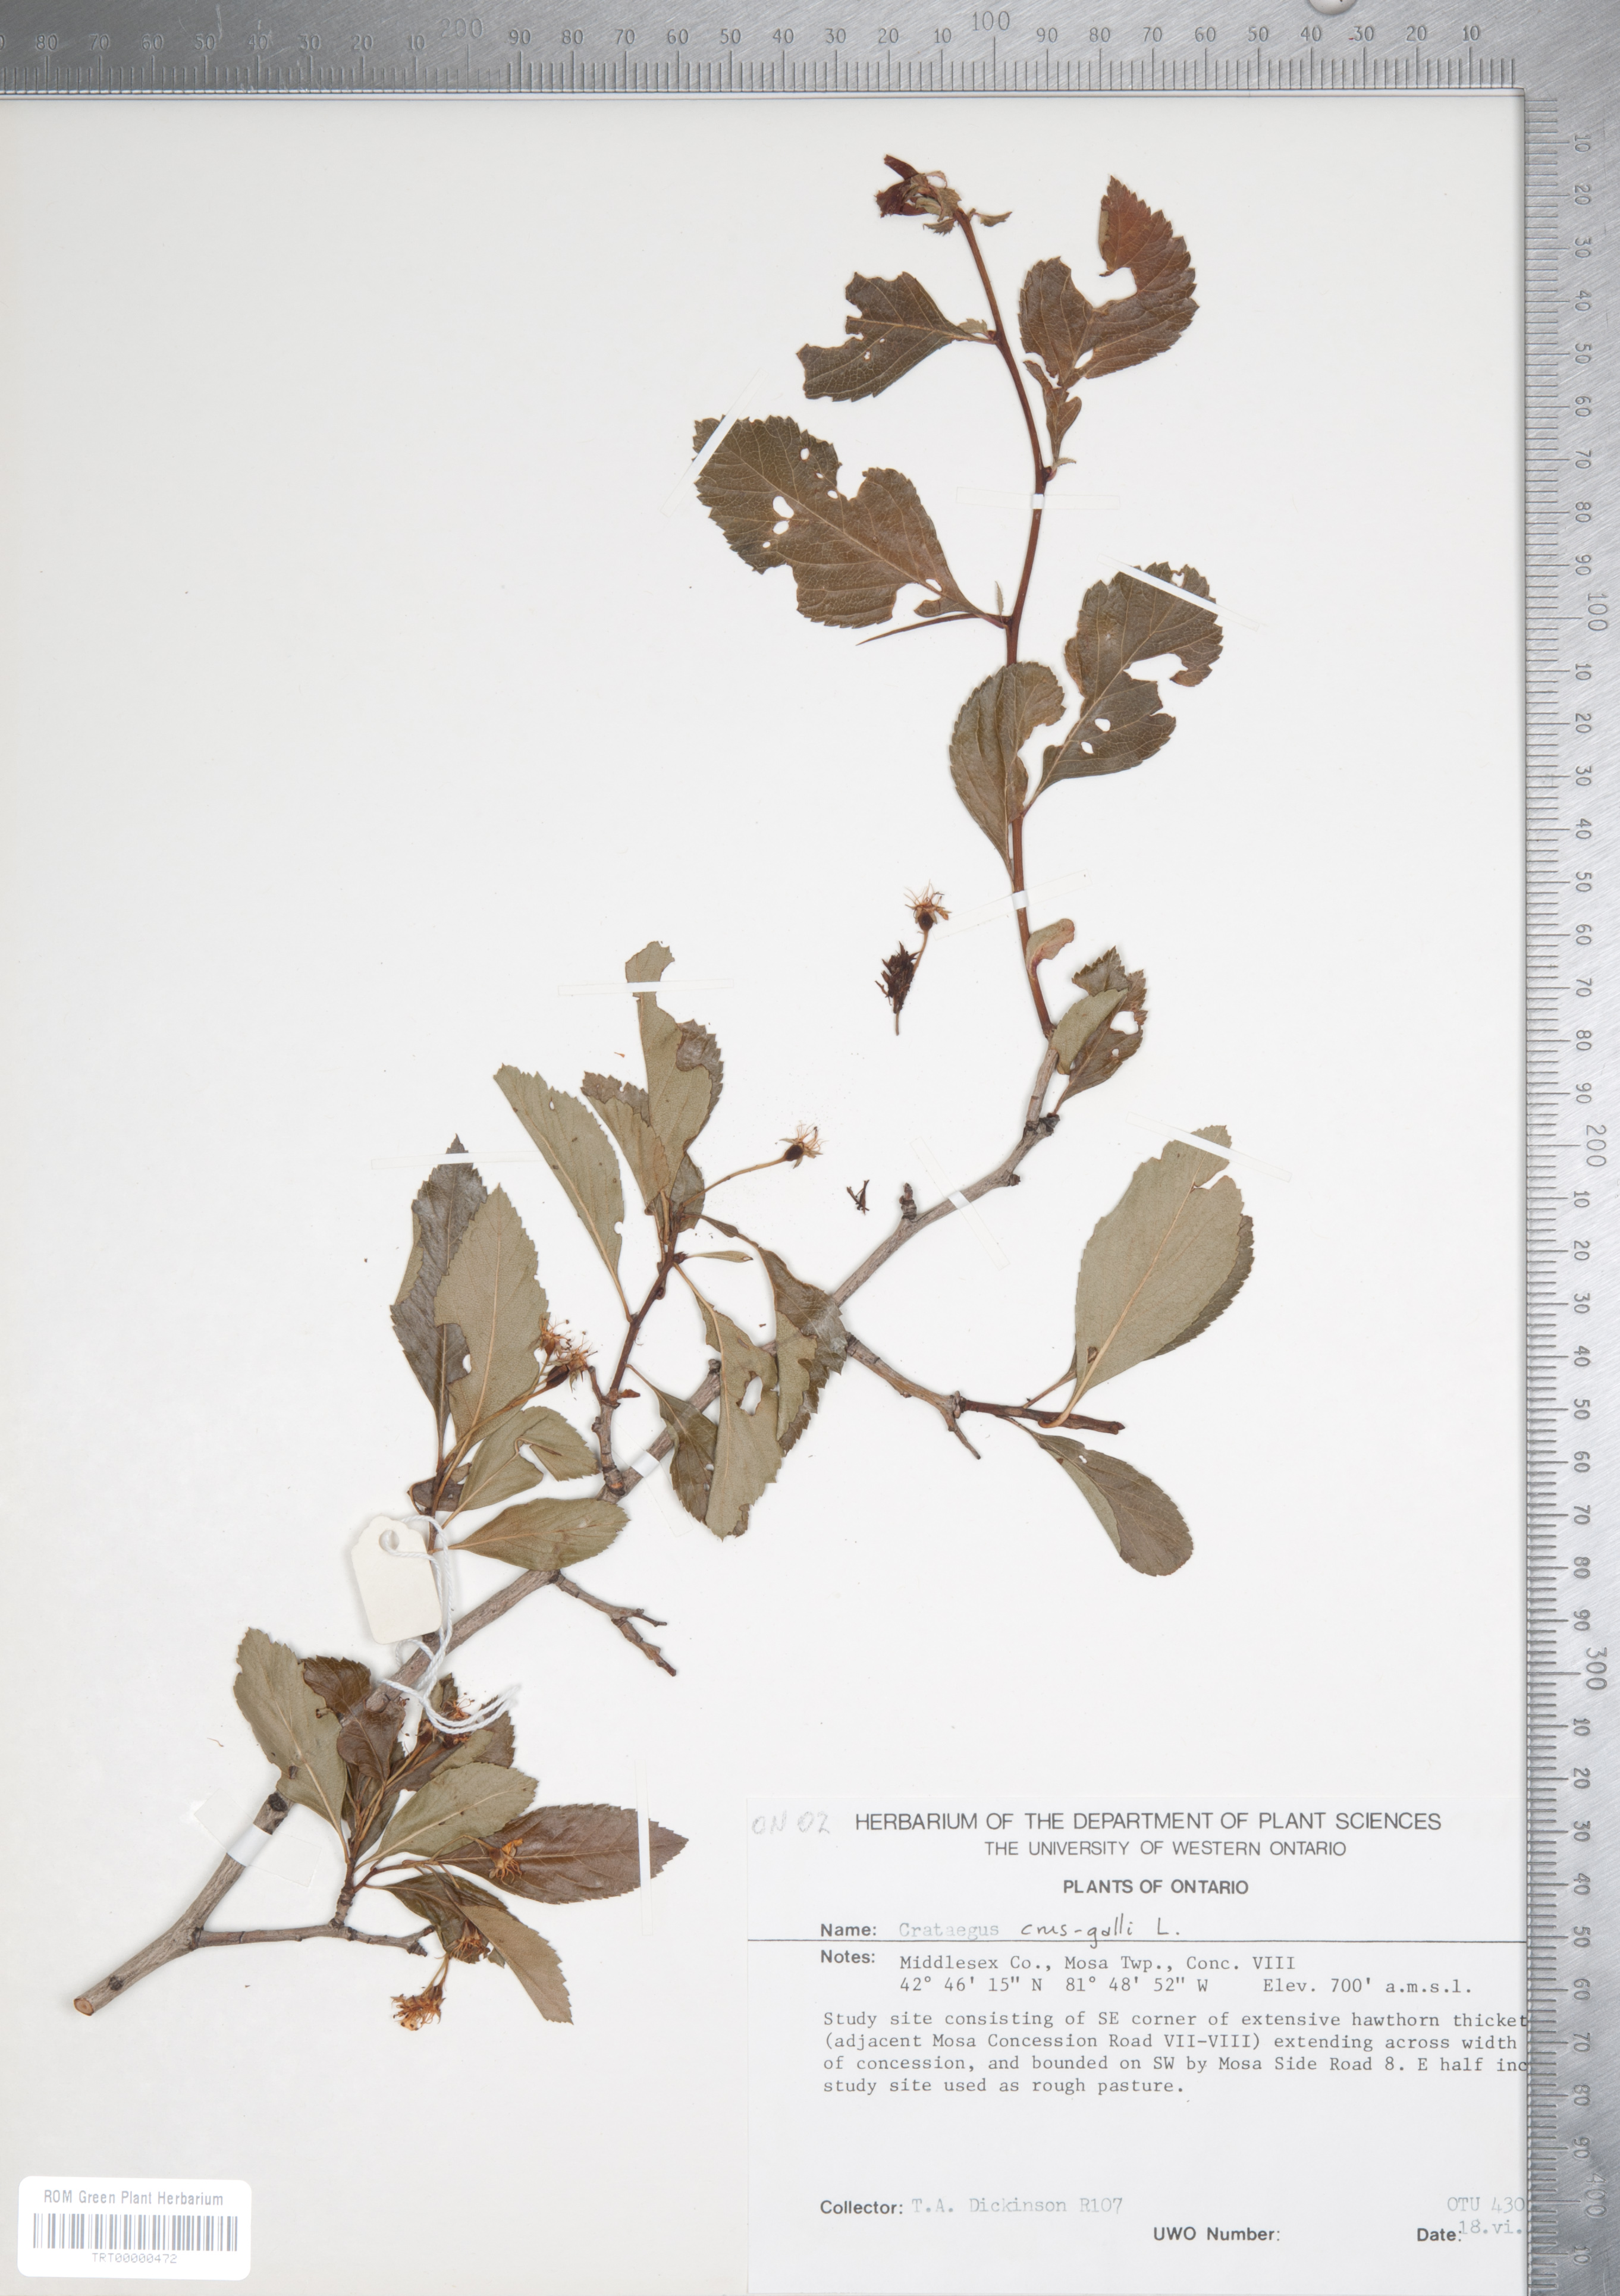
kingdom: Plantae
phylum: Tracheophyta
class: Magnoliopsida
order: Rosales
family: Rosaceae
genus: Crataegus
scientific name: Crataegus crus-galli
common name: Cockspurthorn
